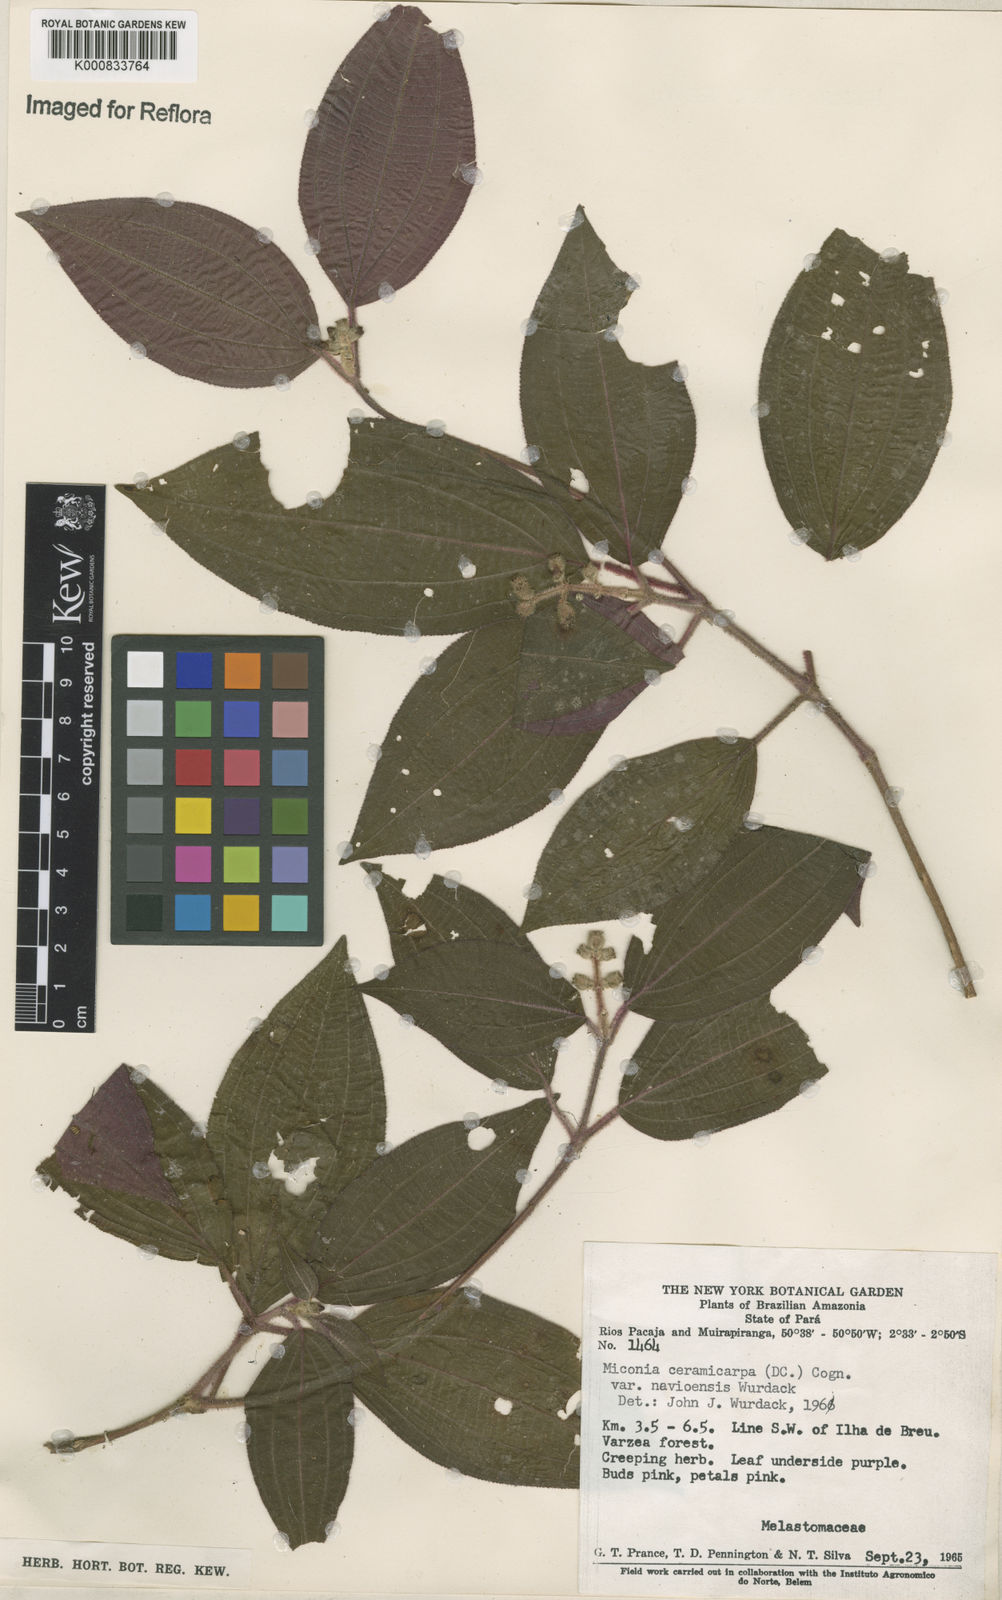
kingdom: Plantae
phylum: Tracheophyta
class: Magnoliopsida
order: Myrtales
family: Melastomataceae
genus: Miconia
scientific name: Miconia ceramicarpa
